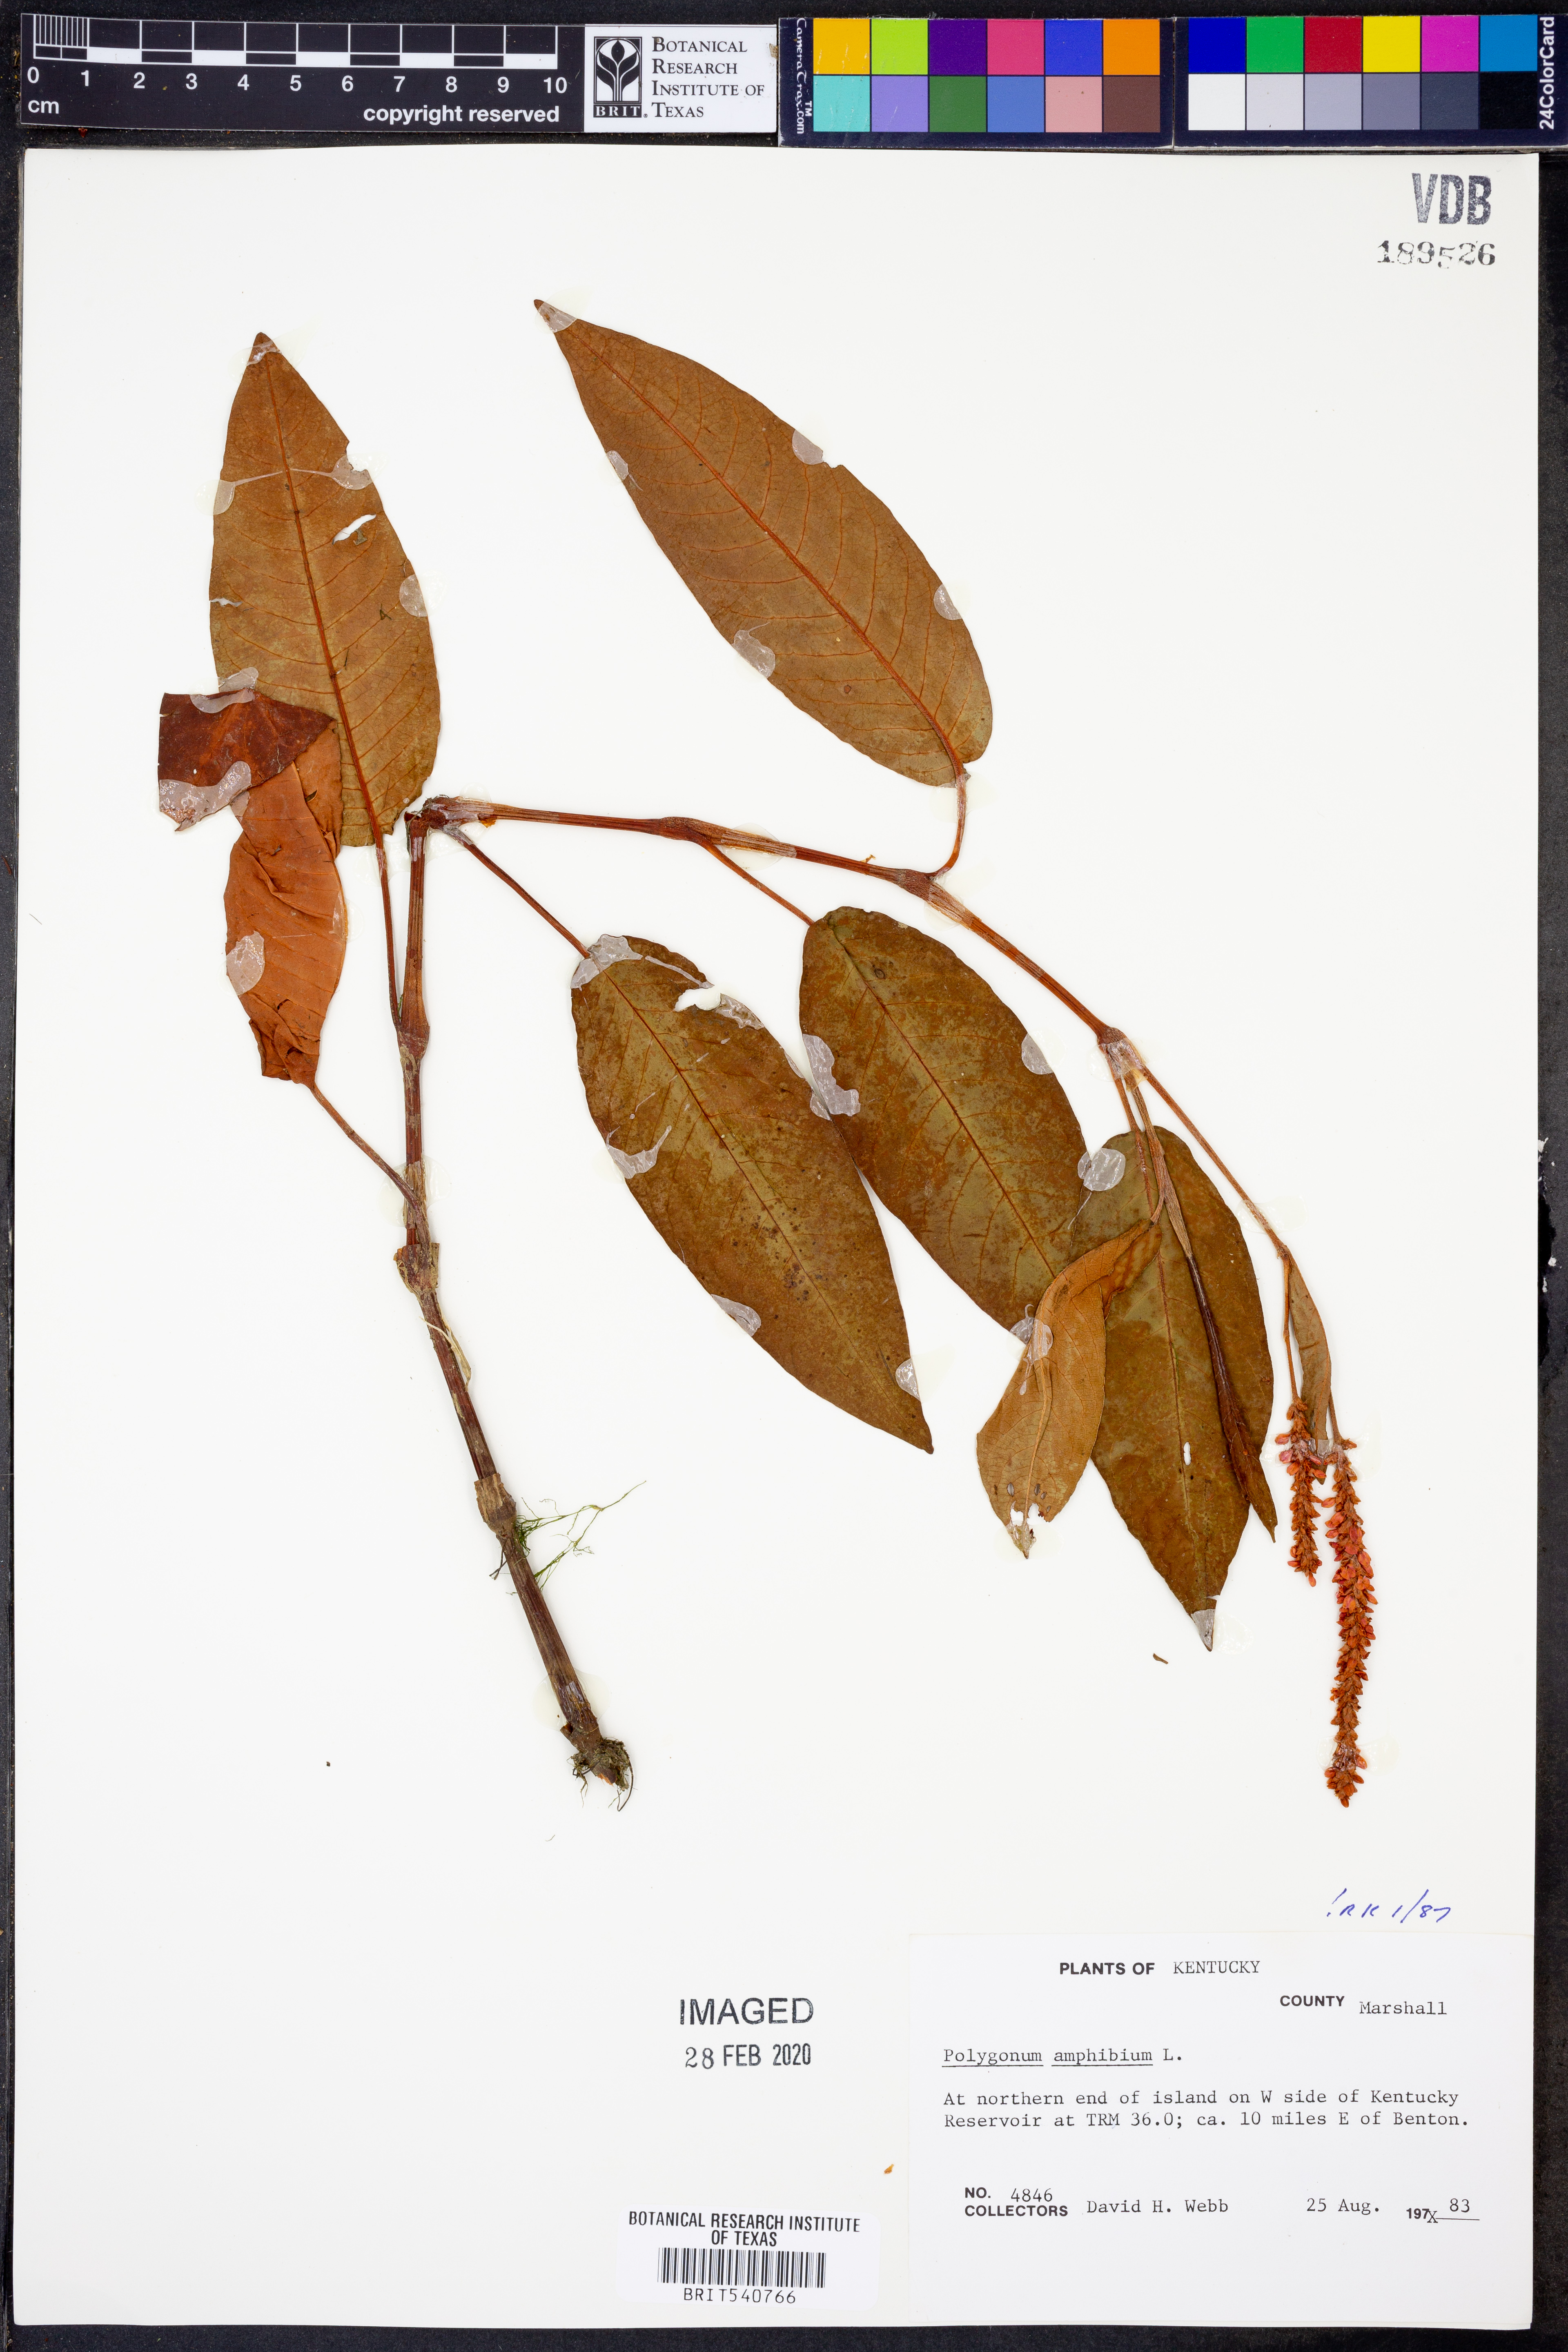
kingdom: Plantae
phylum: Tracheophyta
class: Magnoliopsida
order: Caryophyllales
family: Polygonaceae
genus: Persicaria
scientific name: Persicaria amphibia
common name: Amphibious bistort
